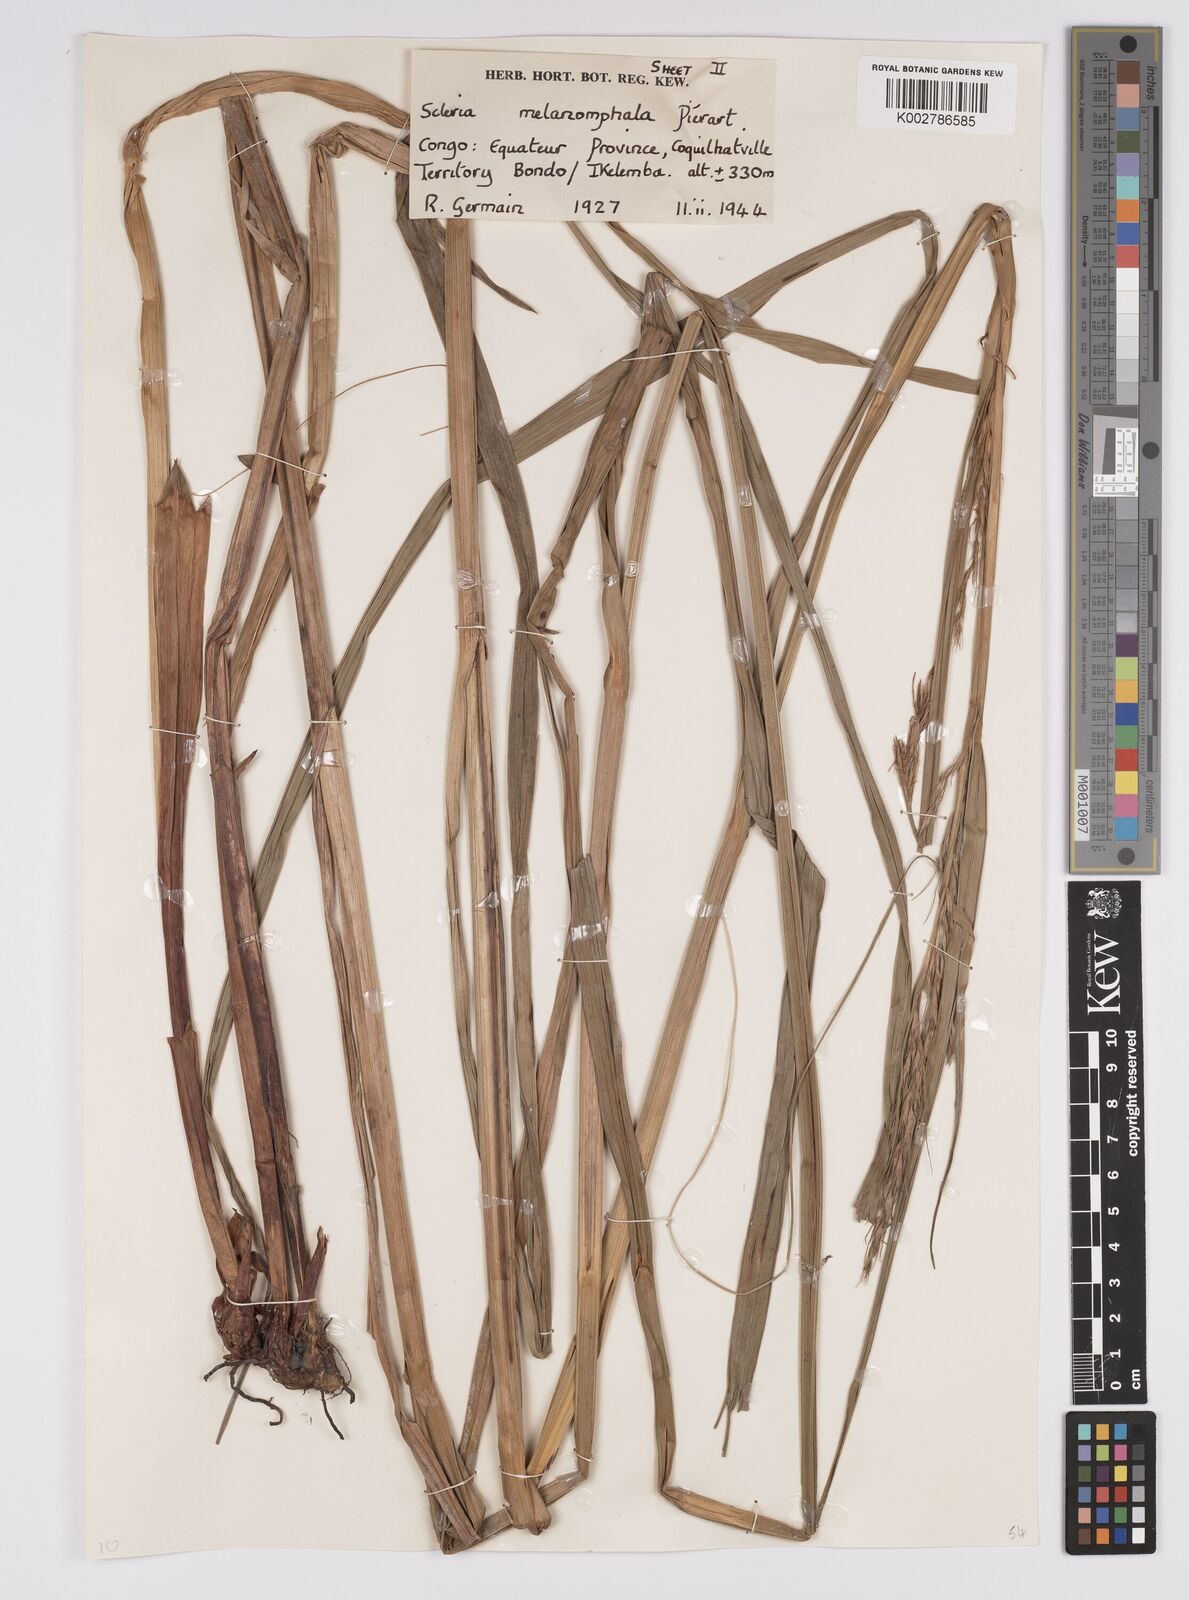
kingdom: Plantae
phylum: Tracheophyta
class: Liliopsida
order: Poales
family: Cyperaceae
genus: Scleria
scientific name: Scleria melanomphala
